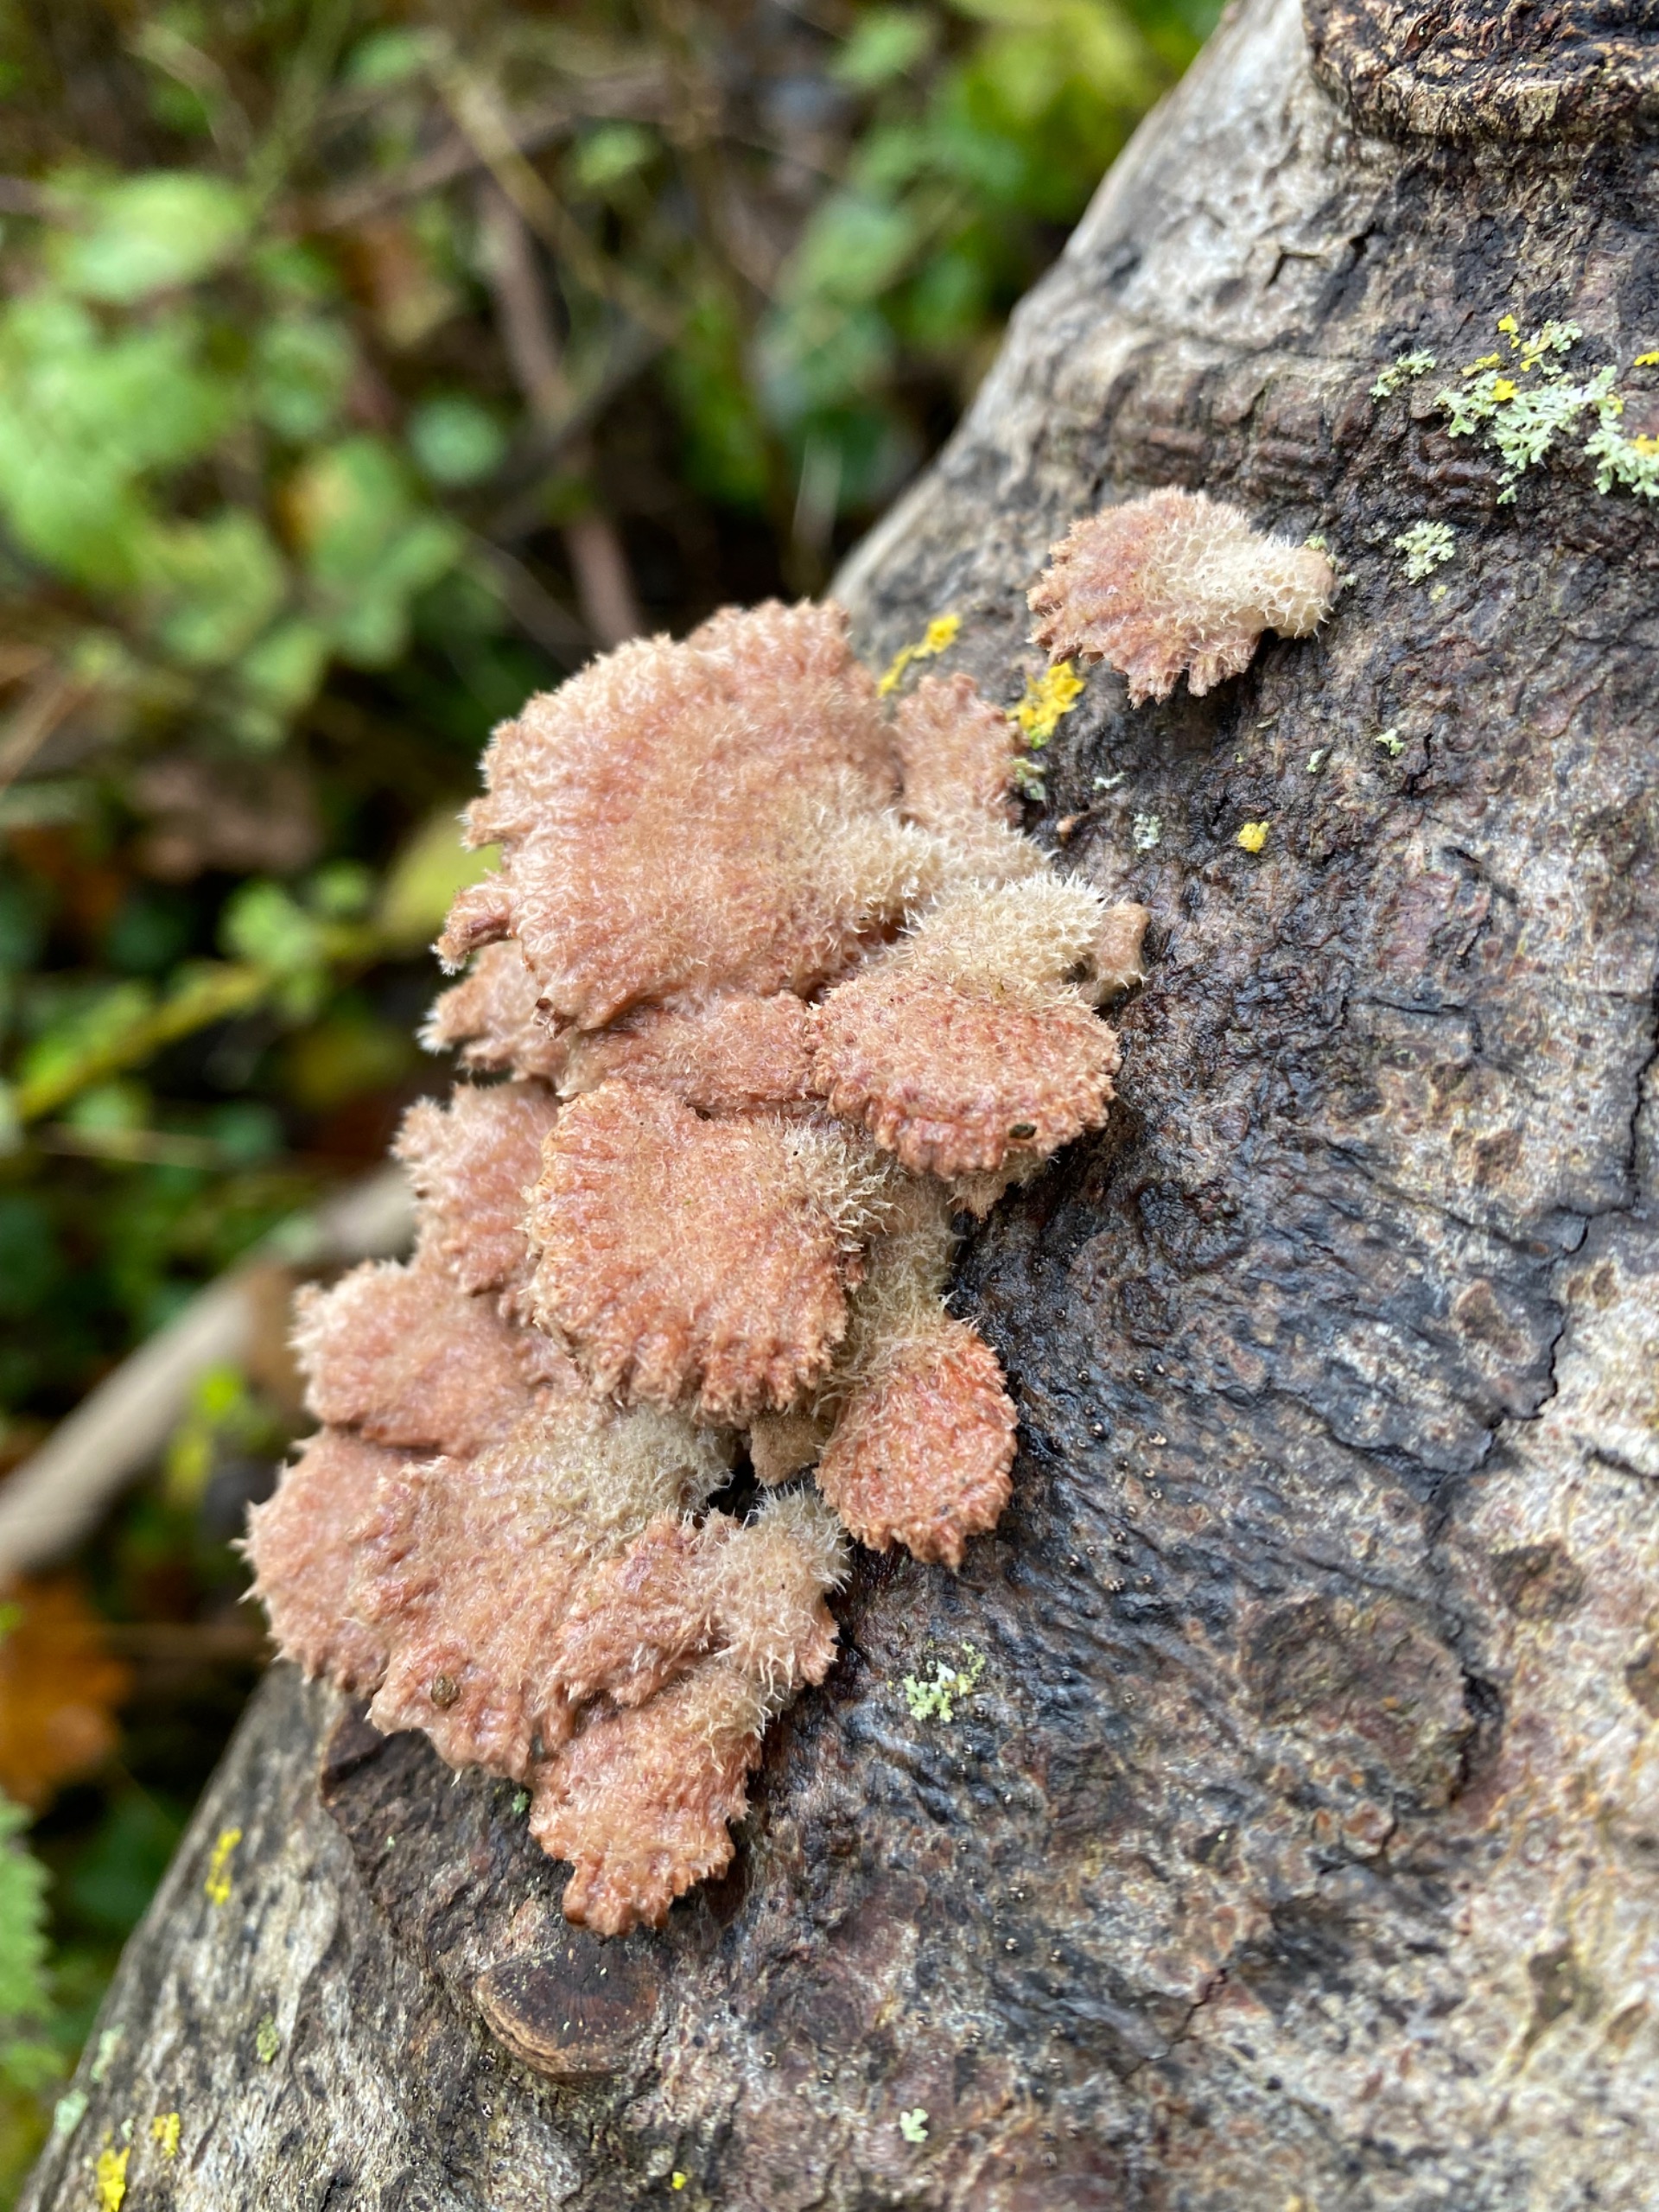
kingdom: Fungi
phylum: Basidiomycota
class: Agaricomycetes
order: Agaricales
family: Schizophyllaceae
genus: Schizophyllum
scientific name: Schizophyllum commune
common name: Kløvblad
